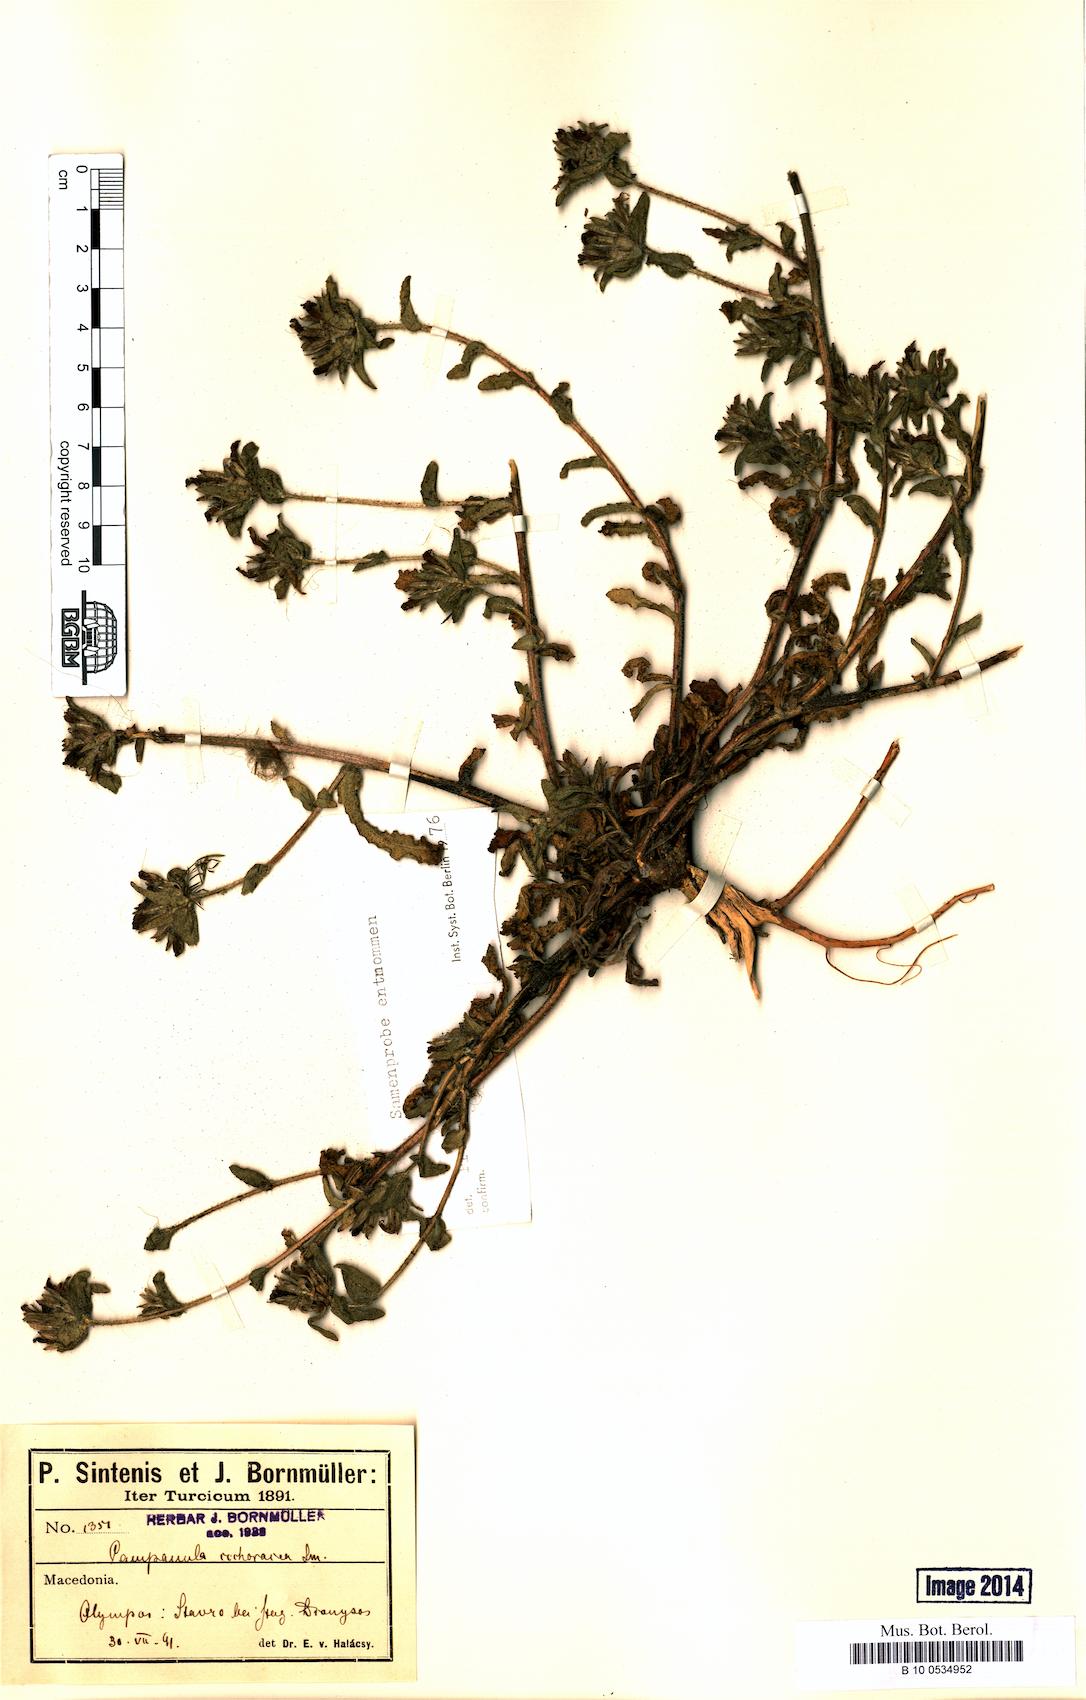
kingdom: Plantae
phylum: Tracheophyta
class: Magnoliopsida
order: Asterales
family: Campanulaceae
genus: Campanula
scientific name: Campanula lingulata
